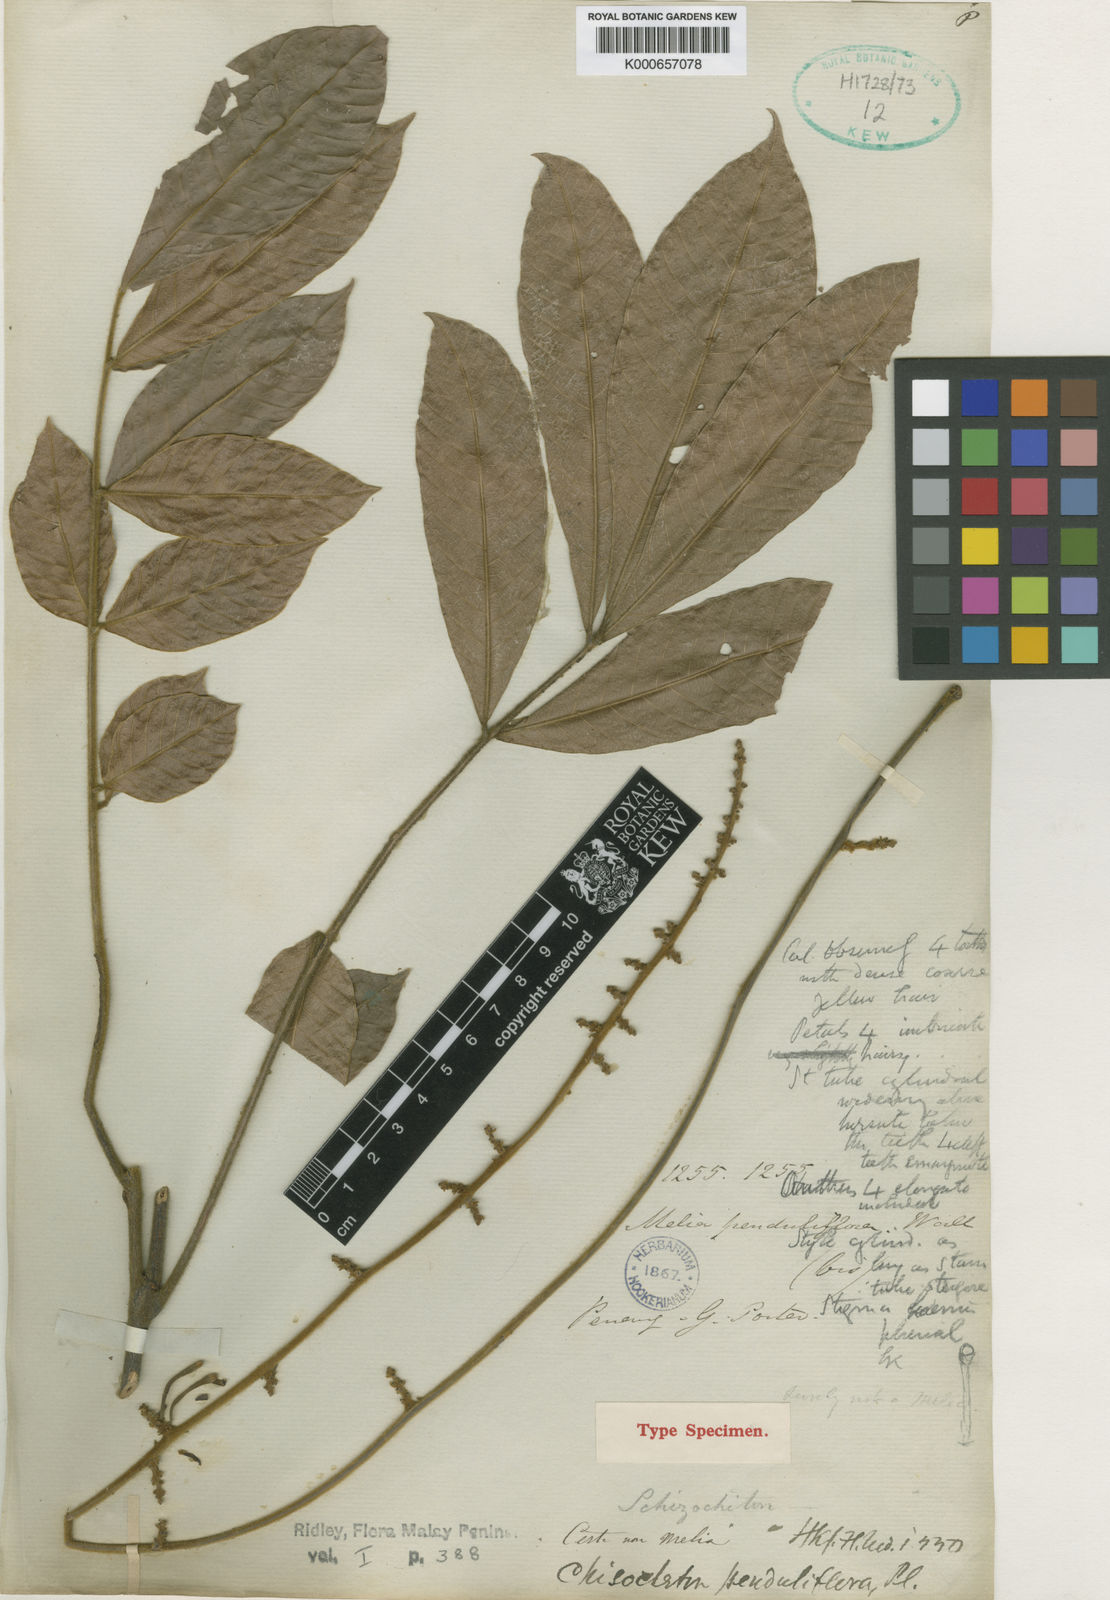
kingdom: Plantae
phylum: Tracheophyta
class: Magnoliopsida
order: Sapindales
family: Meliaceae
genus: Chisocheton
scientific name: Chisocheton penduliflorus
